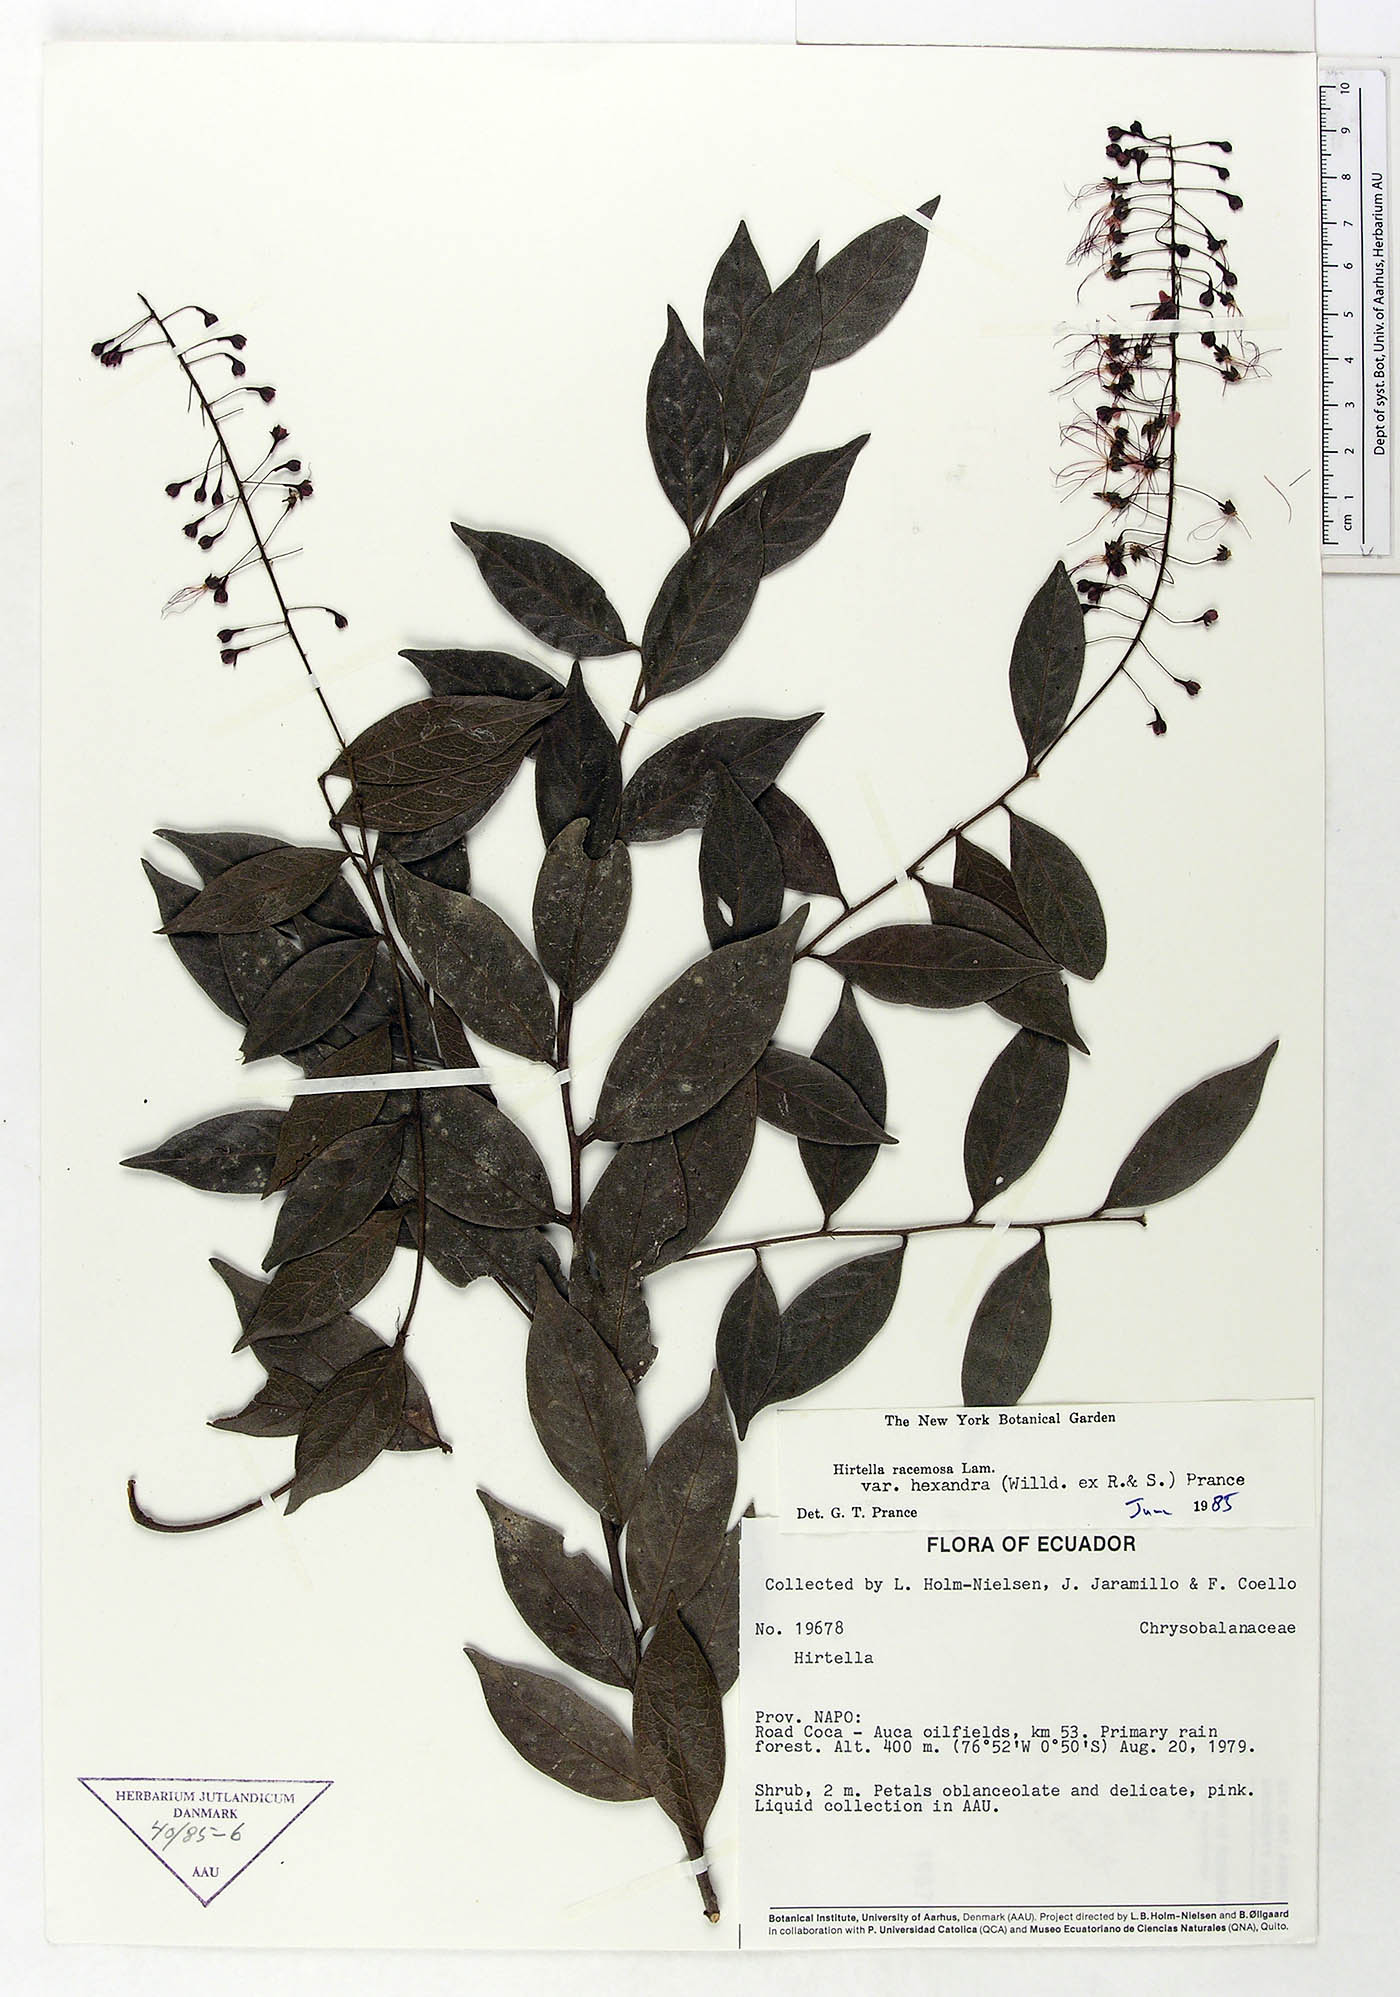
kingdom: Plantae
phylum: Tracheophyta
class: Magnoliopsida
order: Malpighiales
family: Chrysobalanaceae
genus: Hirtella
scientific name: Hirtella racemosa
